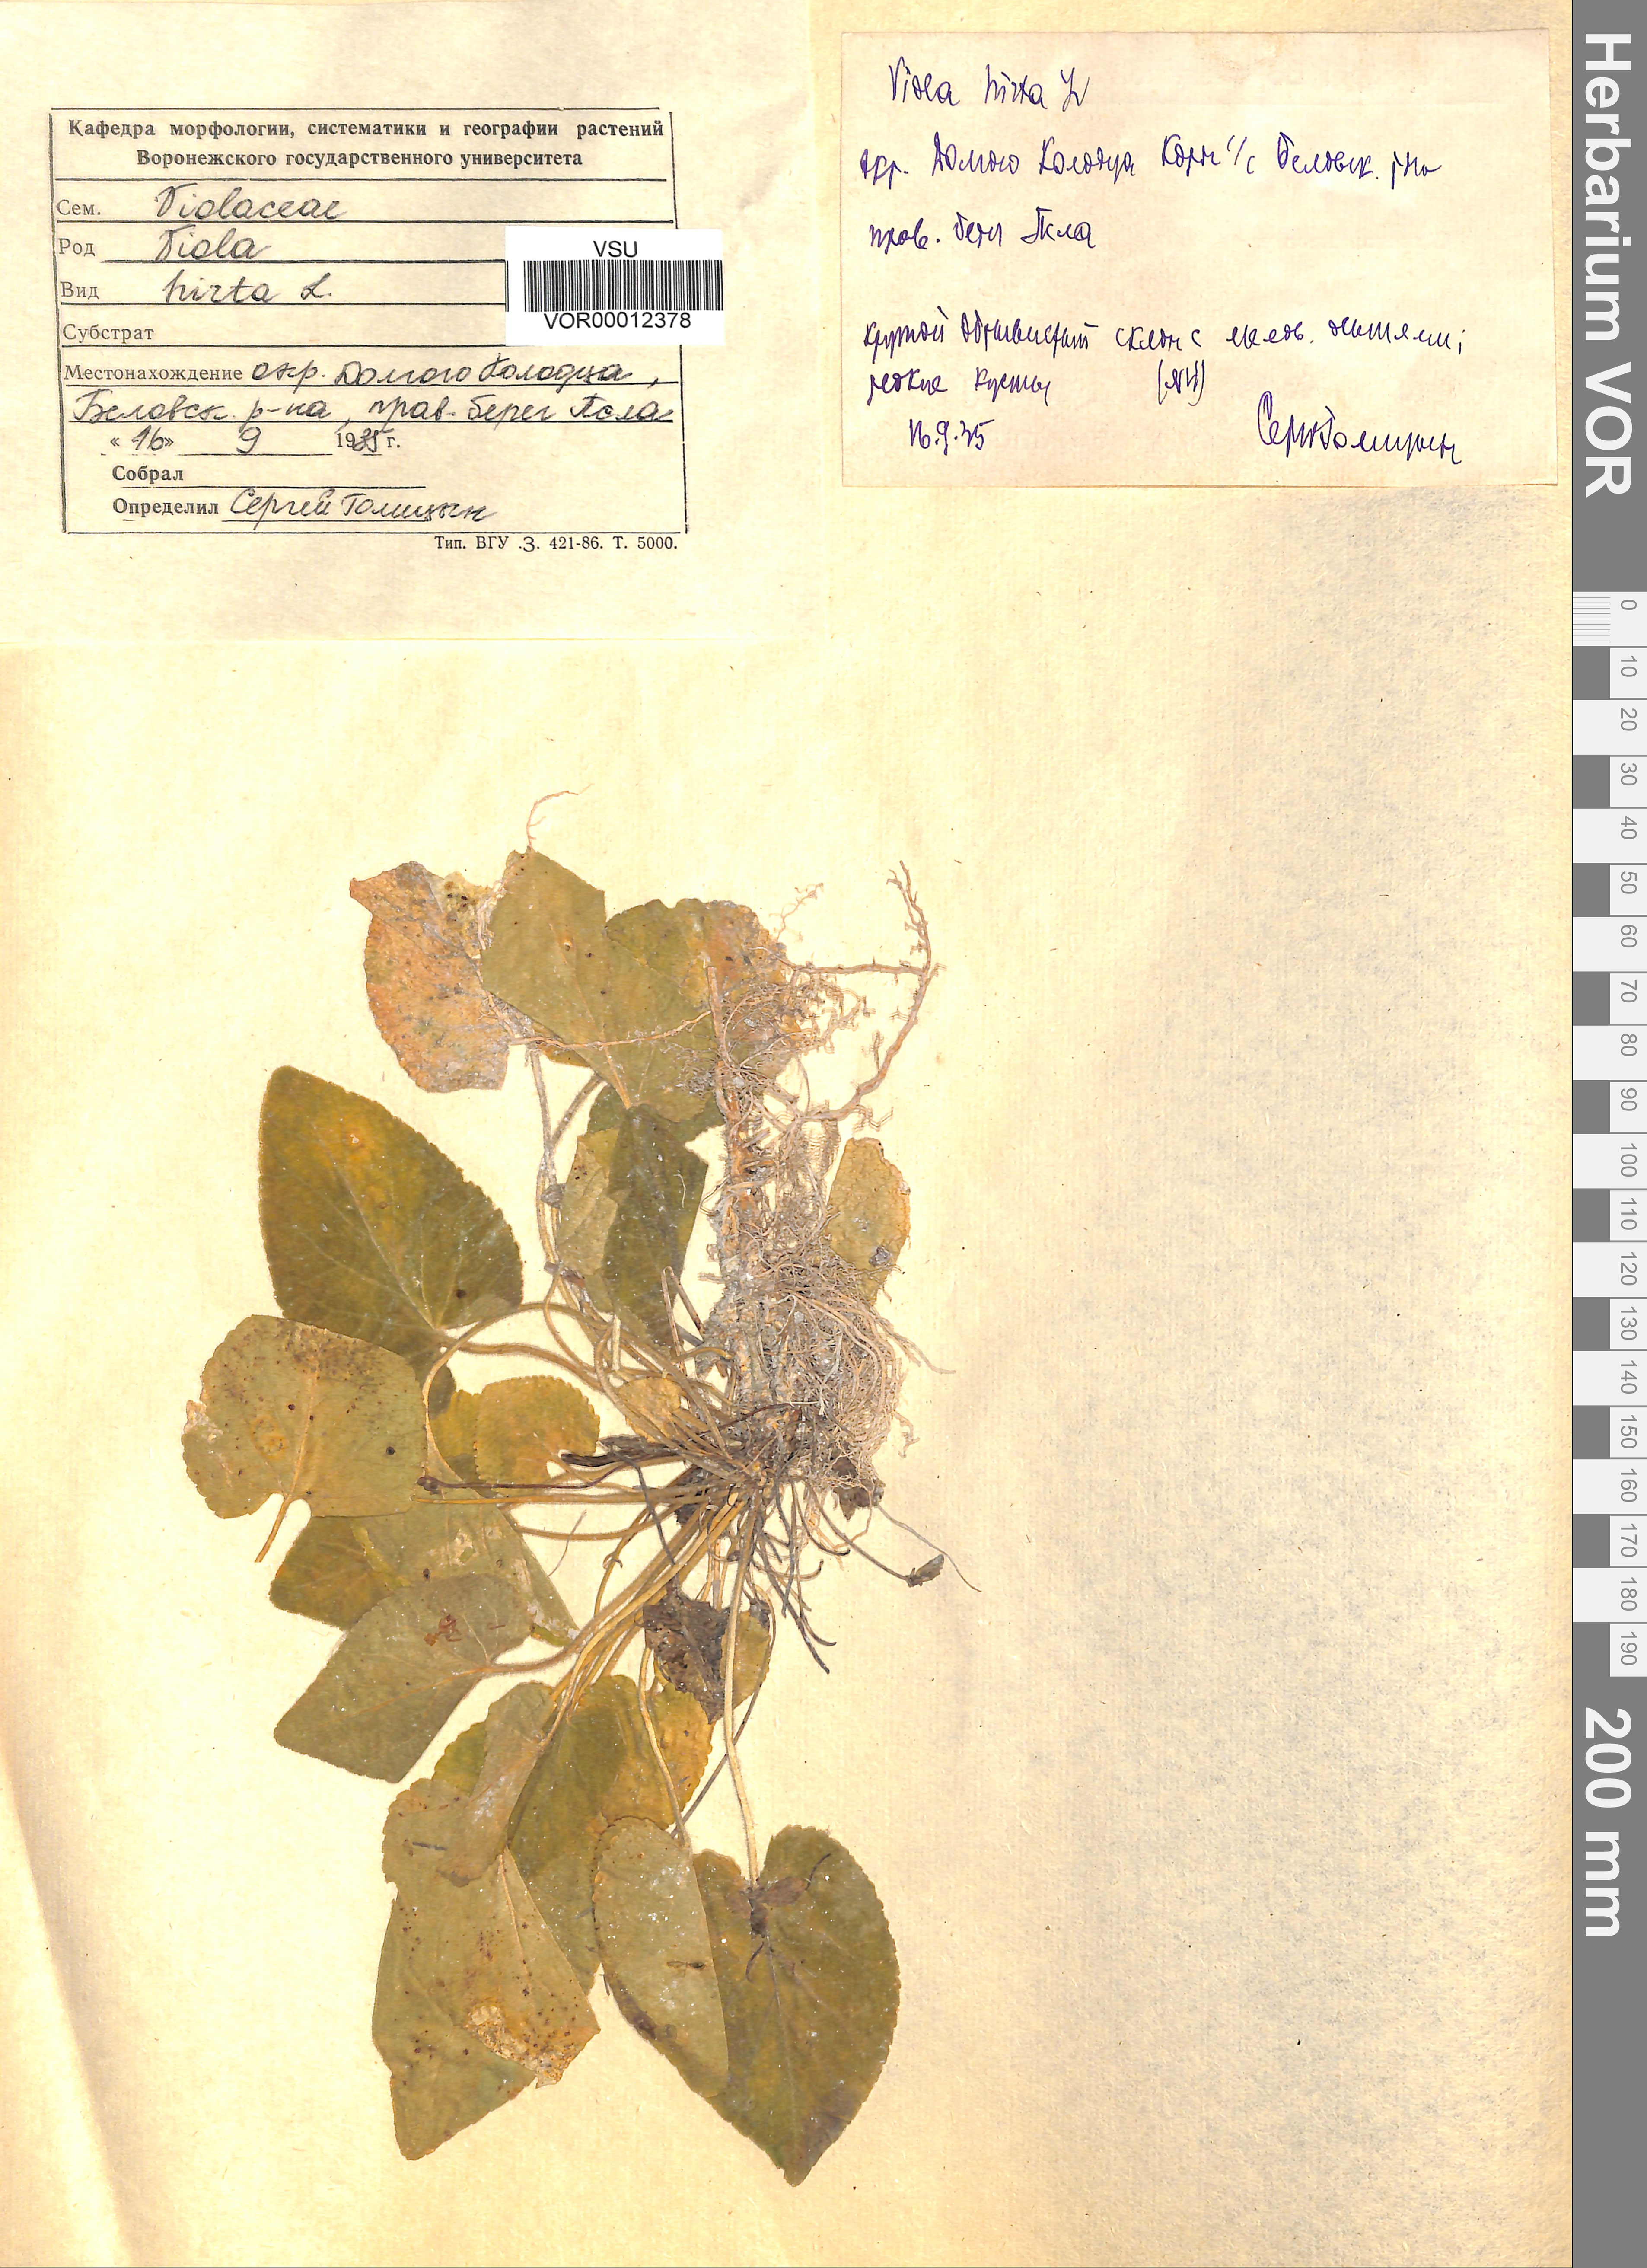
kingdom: Plantae
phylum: Tracheophyta
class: Magnoliopsida
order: Malpighiales
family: Violaceae
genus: Viola
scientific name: Viola hirta
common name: Hairy violet
